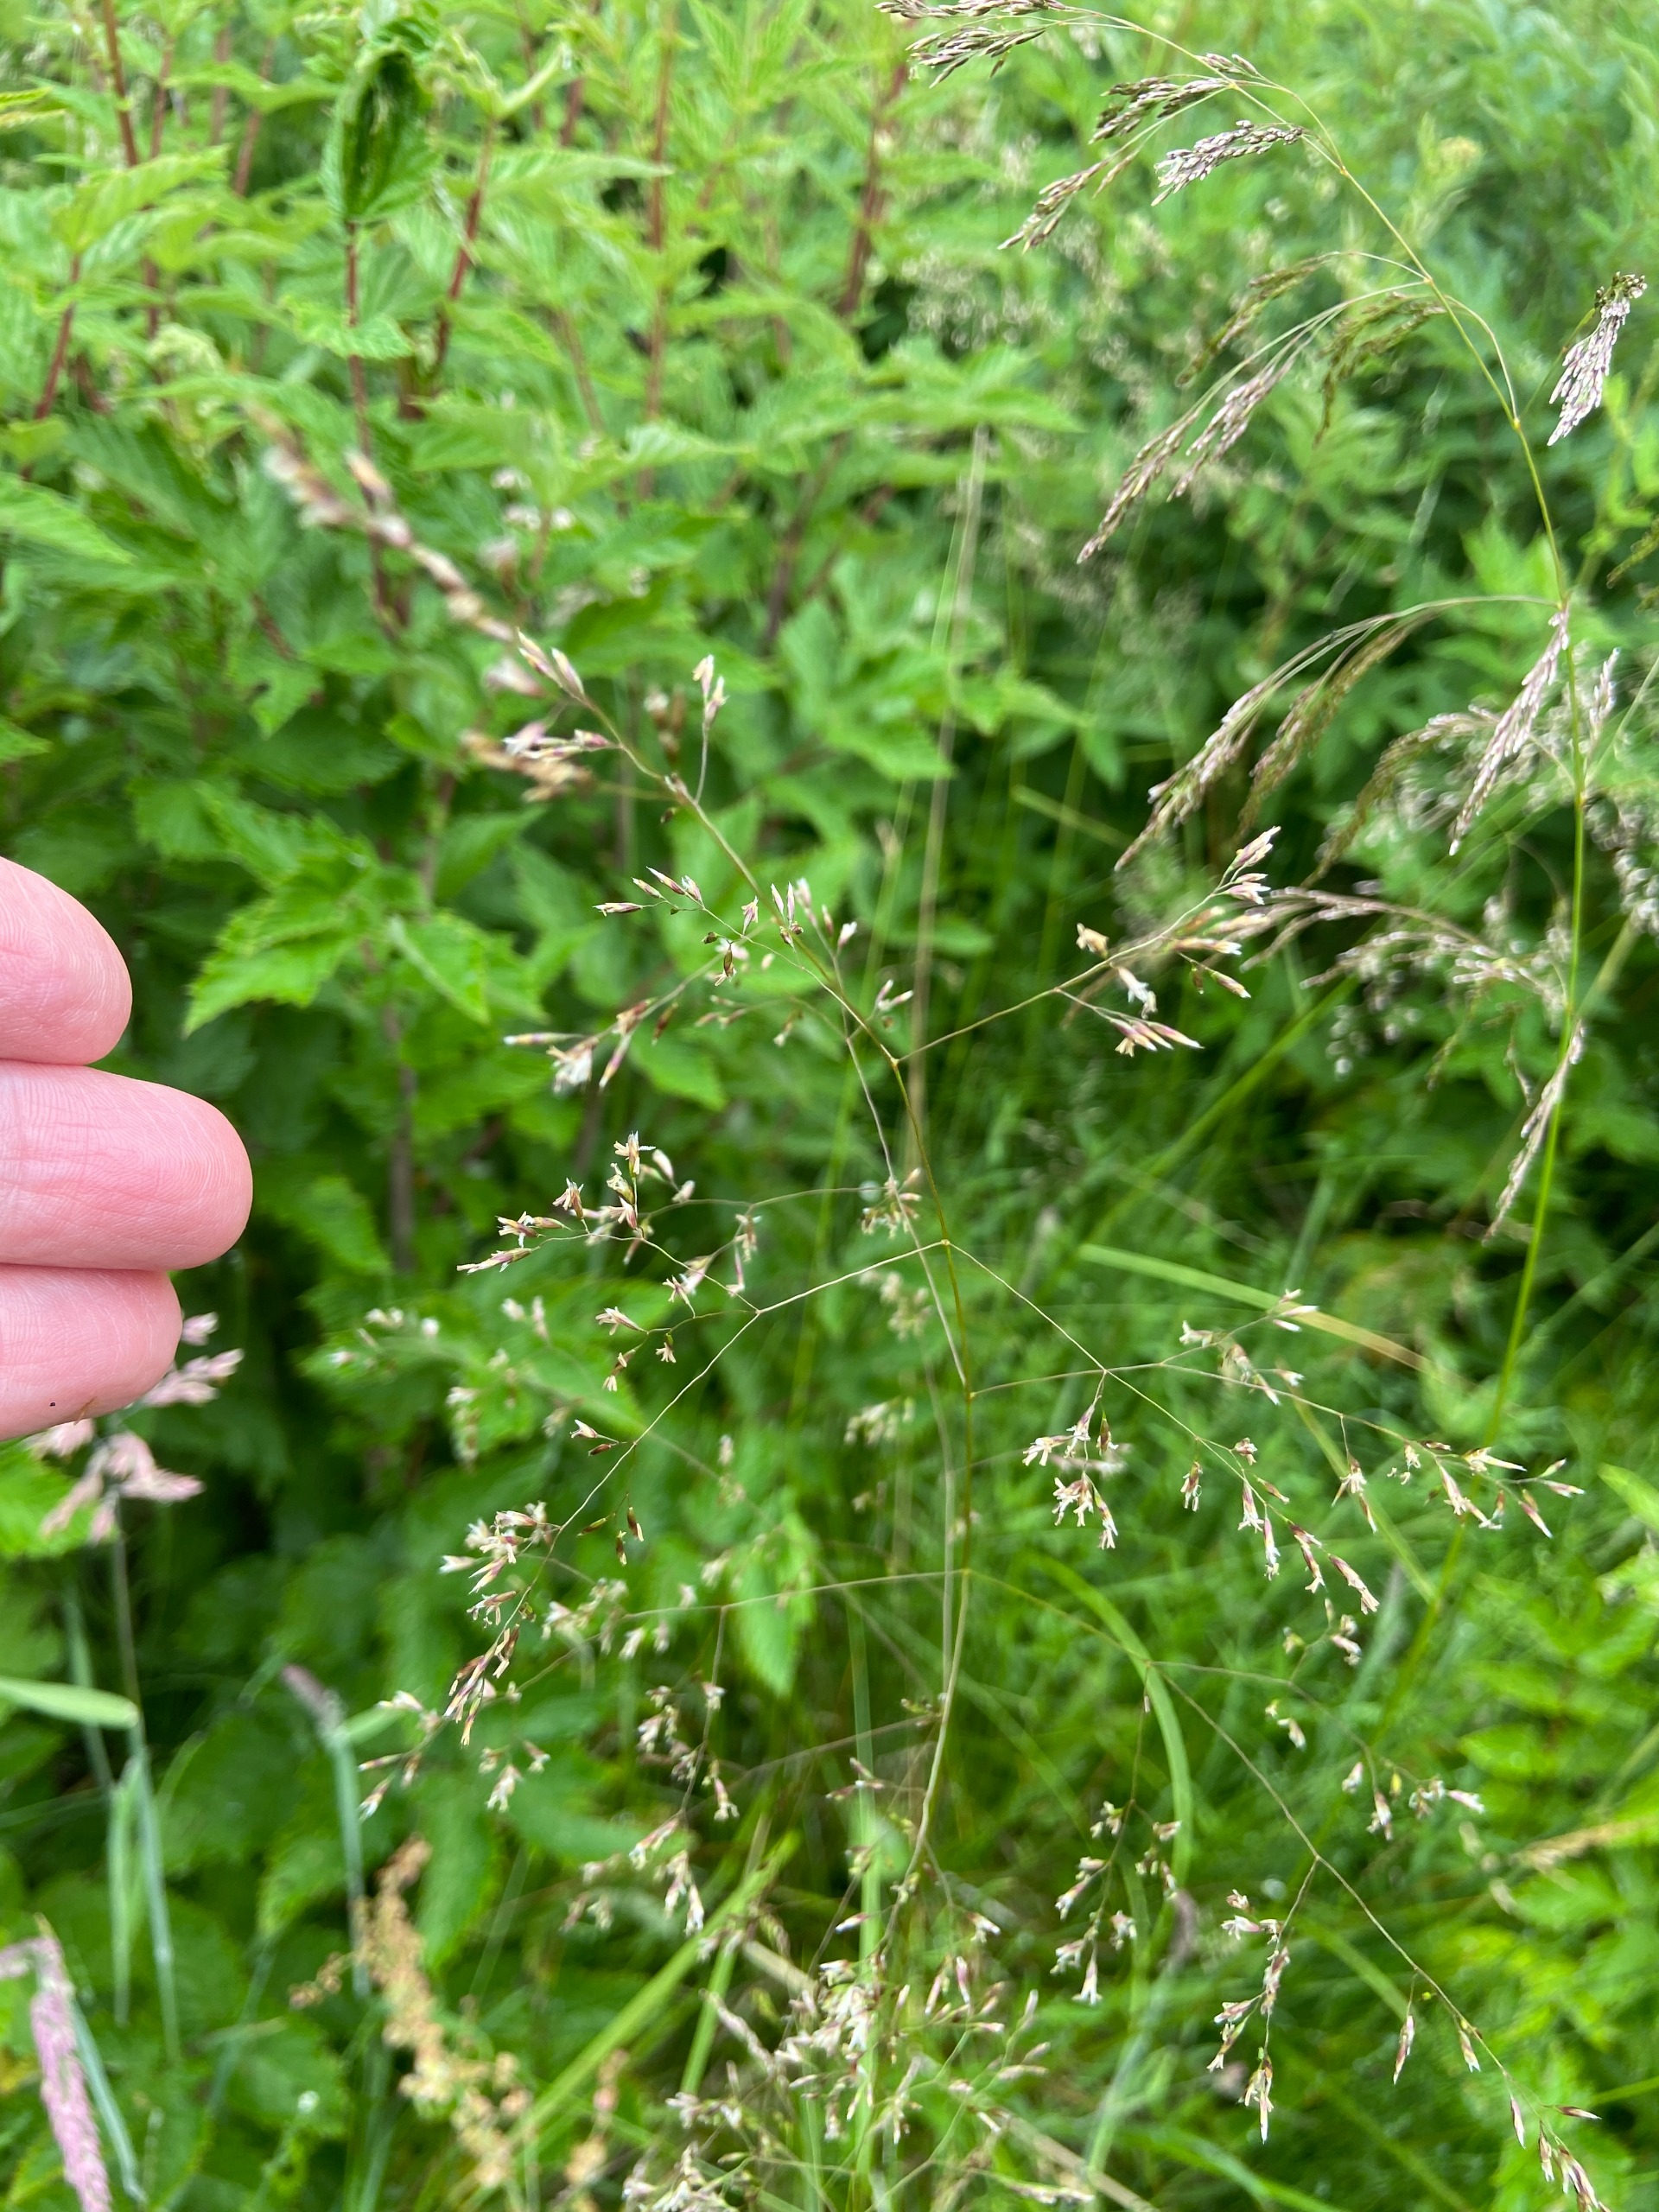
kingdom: Plantae
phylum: Tracheophyta
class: Liliopsida
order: Poales
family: Poaceae
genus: Deschampsia
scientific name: Deschampsia cespitosa
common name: Mose-bunke
